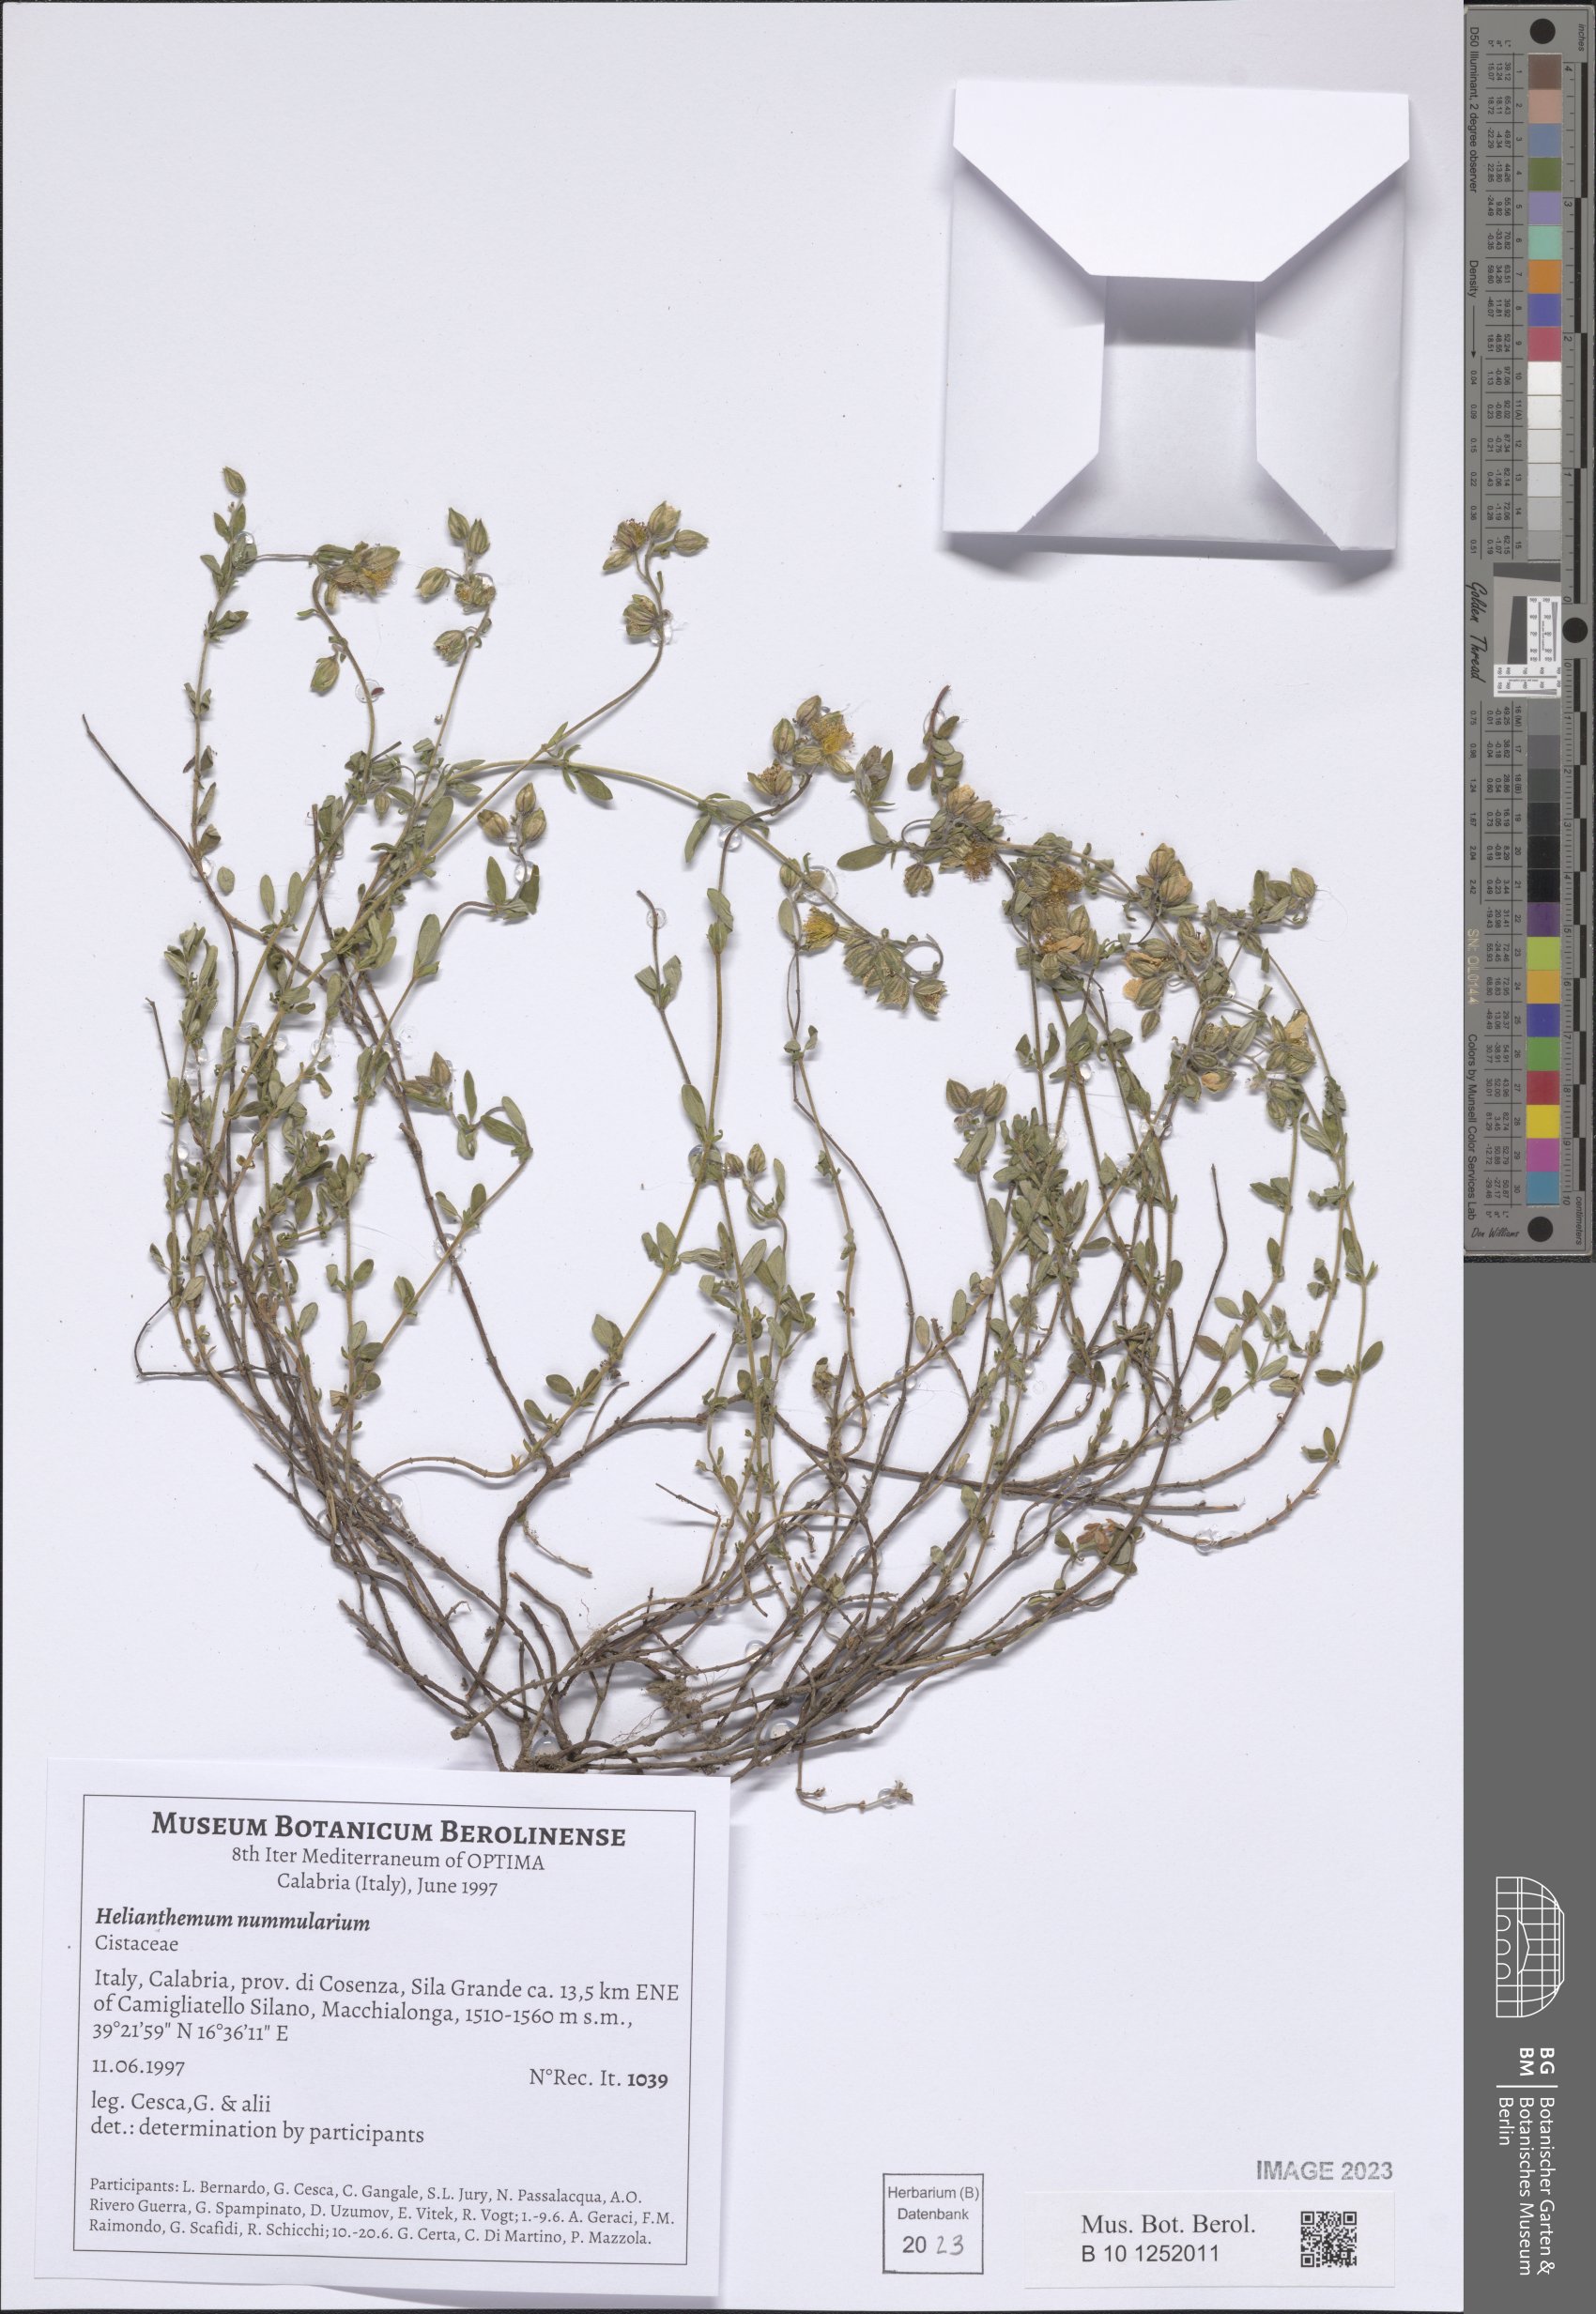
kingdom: Plantae
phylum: Tracheophyta
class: Magnoliopsida
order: Malvales
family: Cistaceae
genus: Helianthemum
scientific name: Helianthemum nummularium
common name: Common rock-rose
